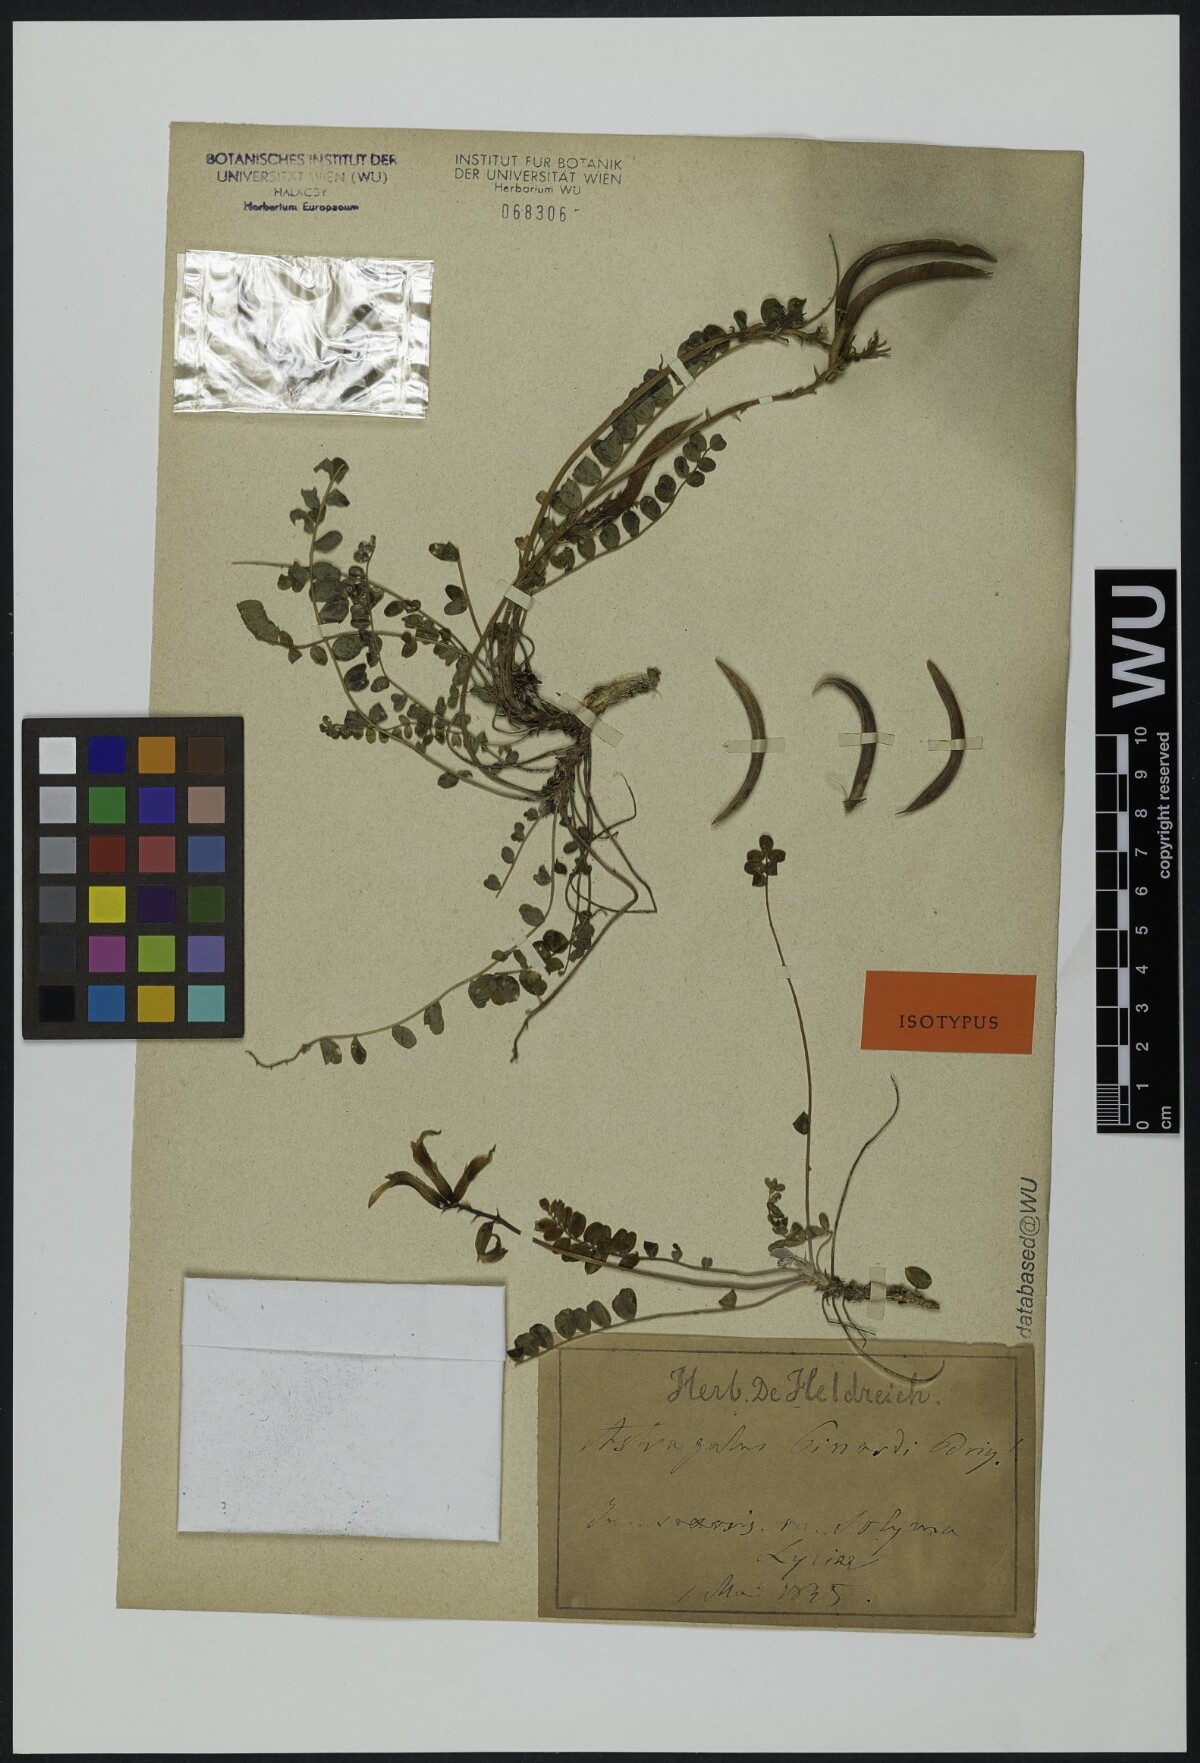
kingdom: Plantae
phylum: Tracheophyta
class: Magnoliopsida
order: Fabales
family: Fabaceae
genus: Astragalus
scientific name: Astragalus schizopterus
